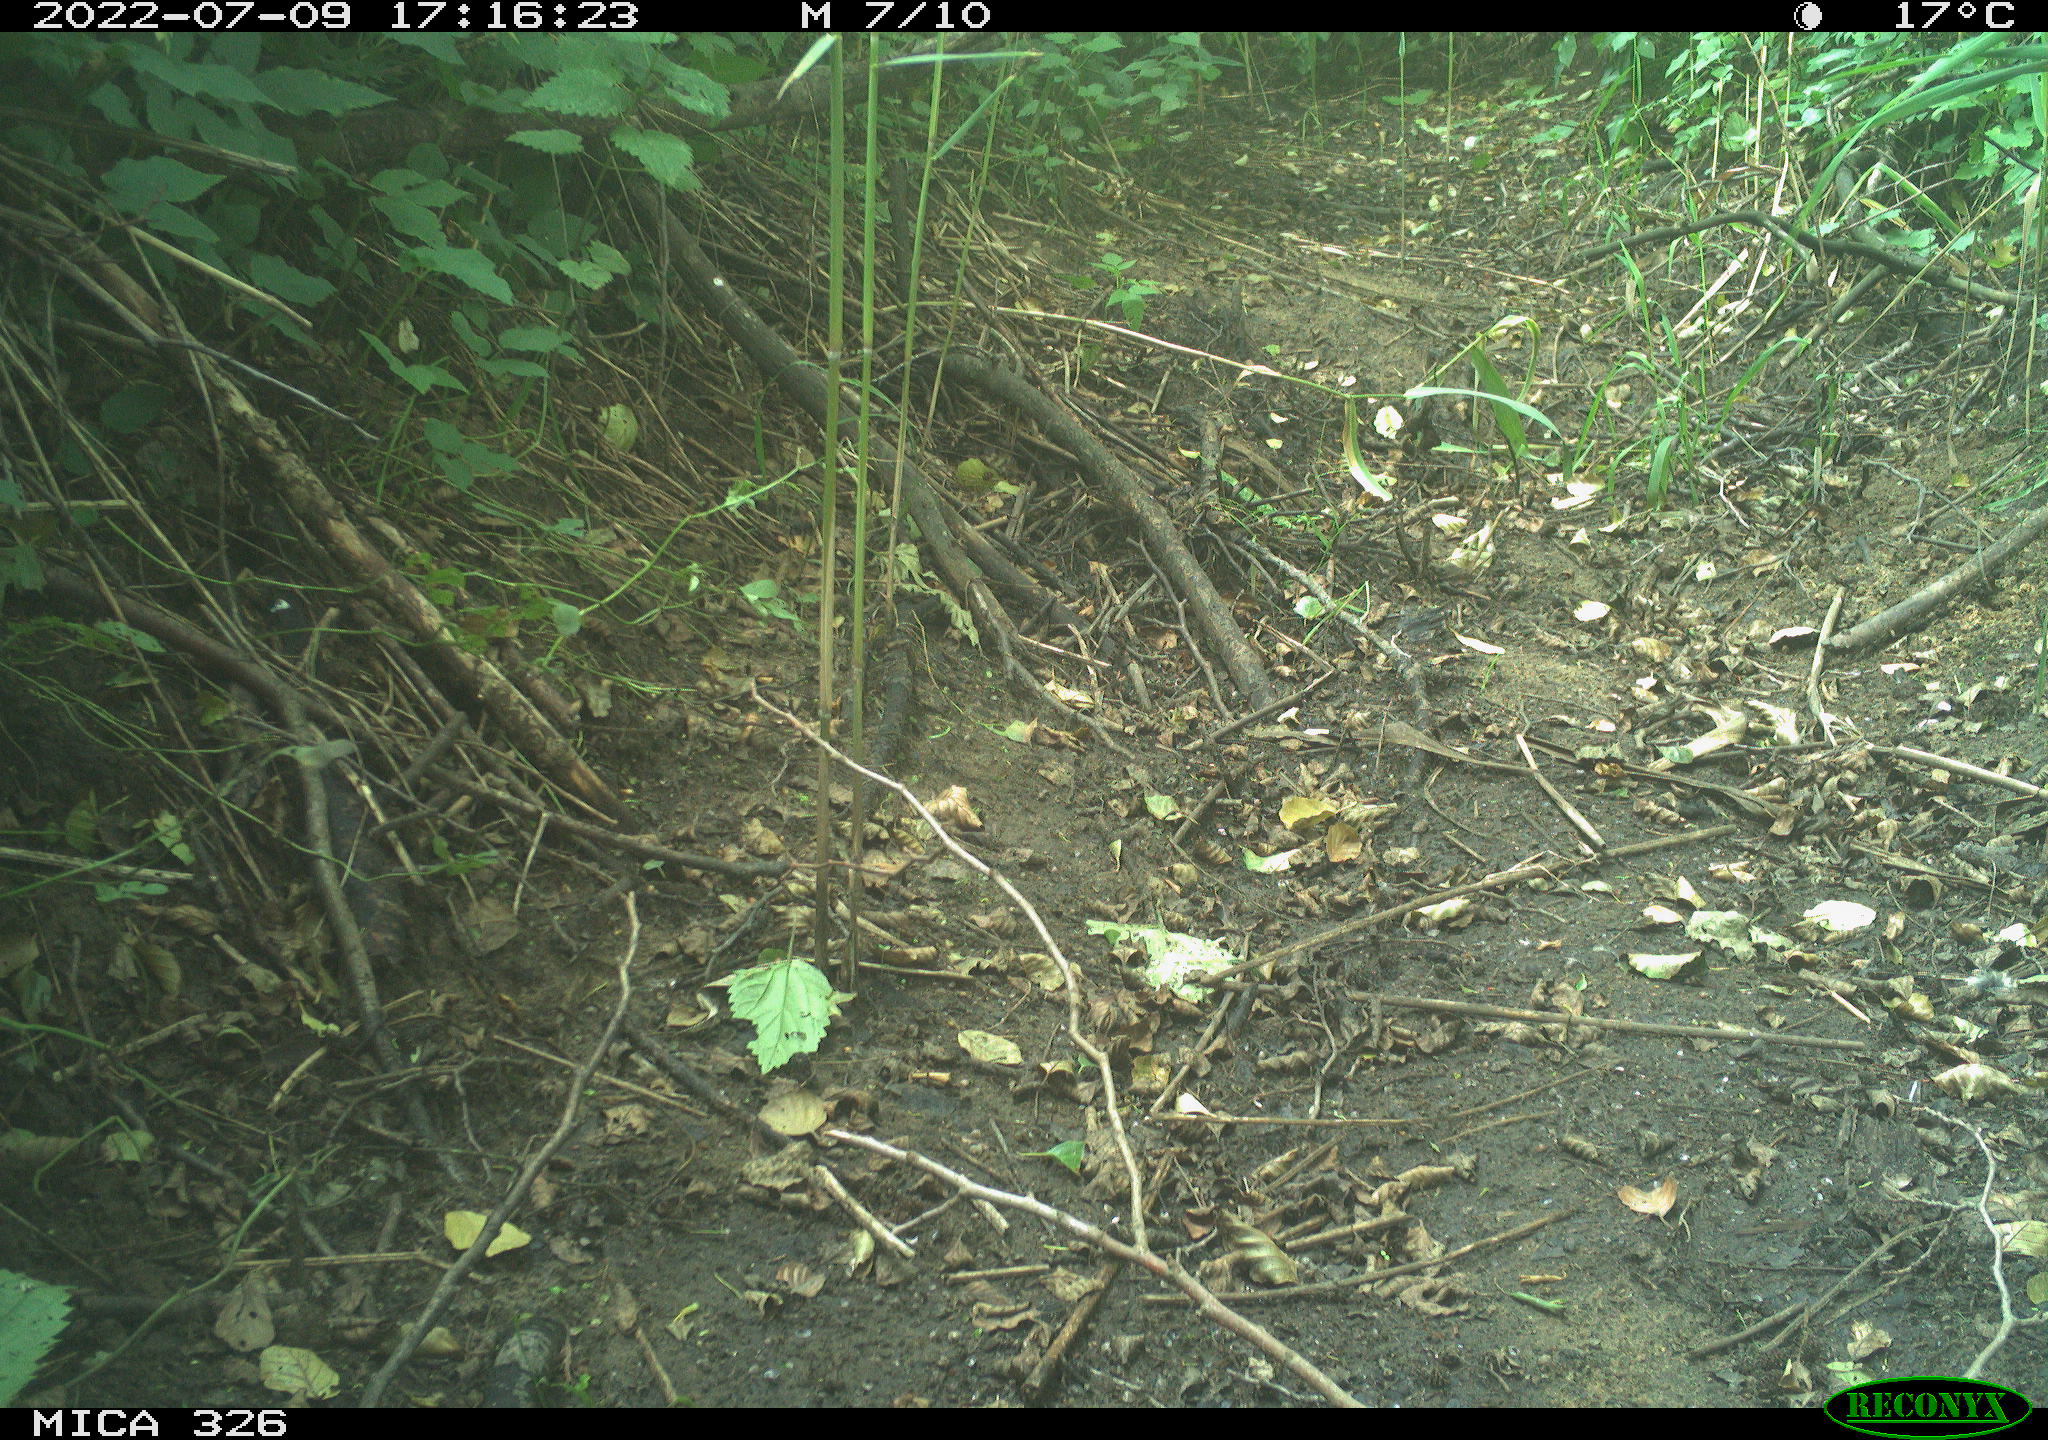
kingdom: Animalia
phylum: Chordata
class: Mammalia
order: Lagomorpha
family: Leporidae
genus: Lepus
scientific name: Lepus europaeus
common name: European hare
